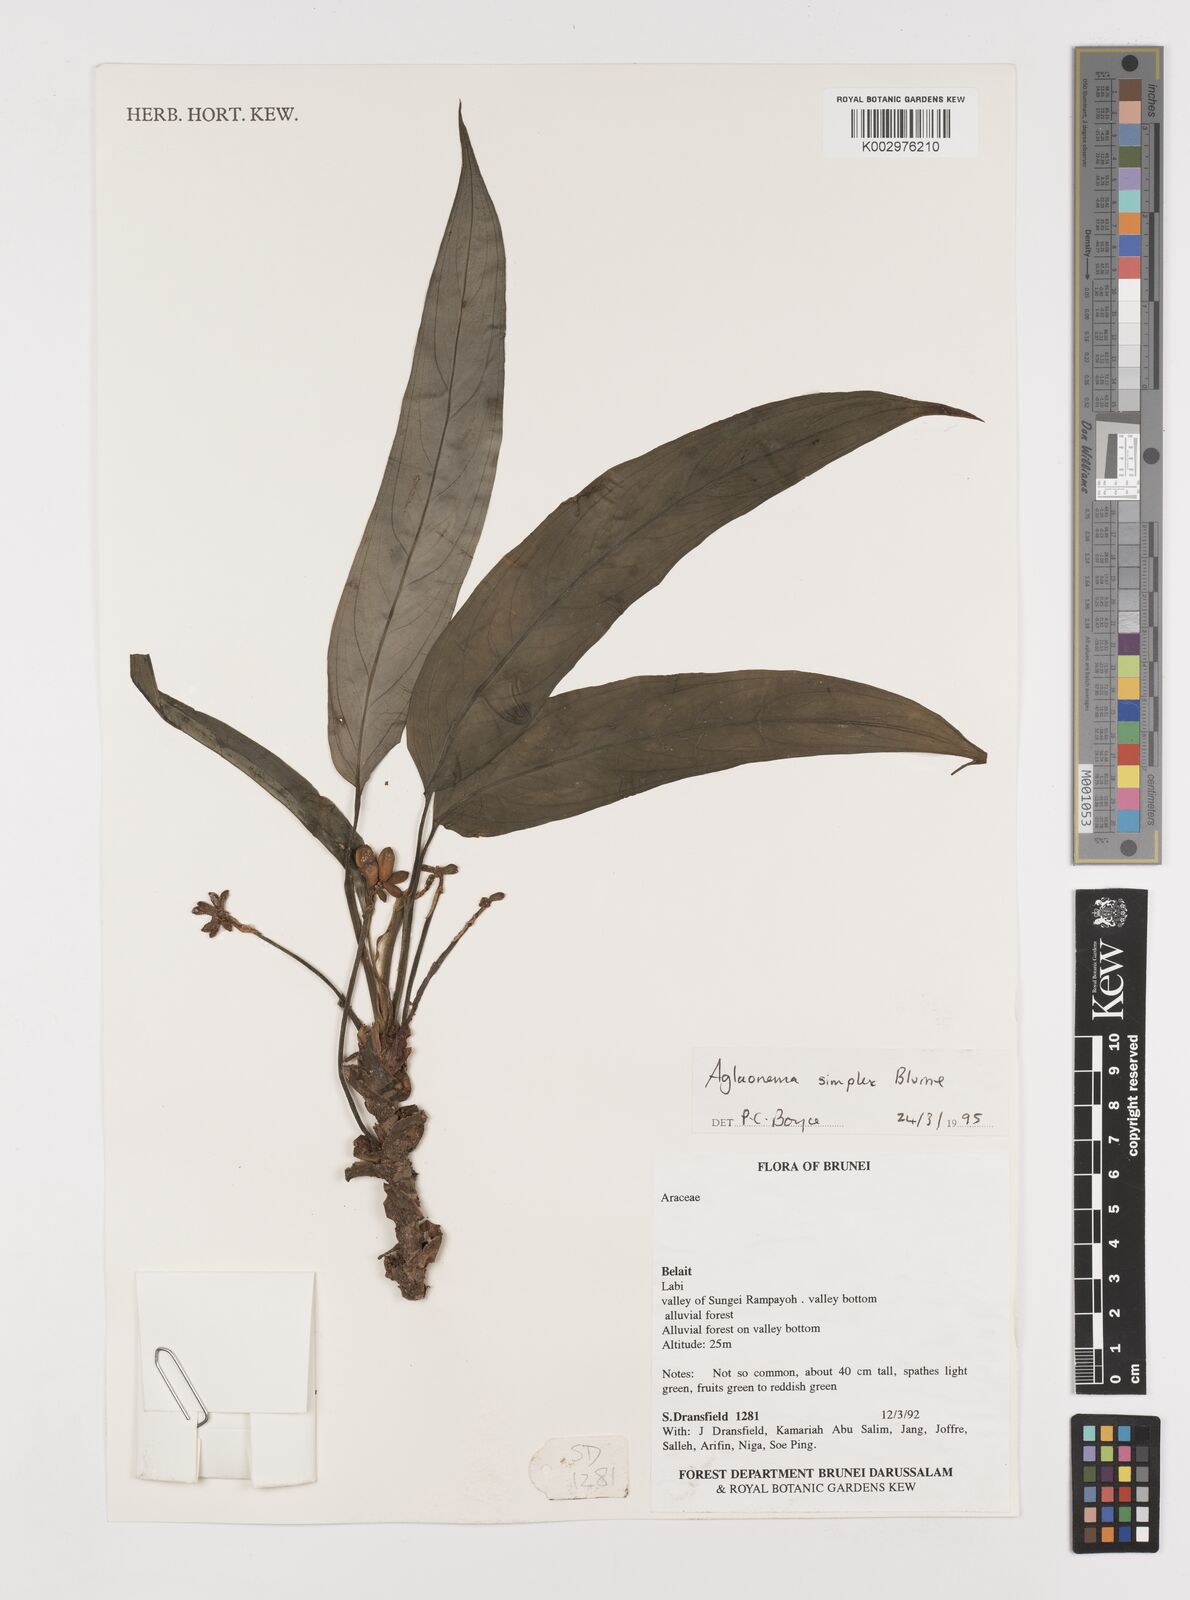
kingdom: Plantae
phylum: Tracheophyta
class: Liliopsida
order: Alismatales
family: Araceae
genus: Aglaonema
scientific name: Aglaonema simplex
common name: Malayan-sword
